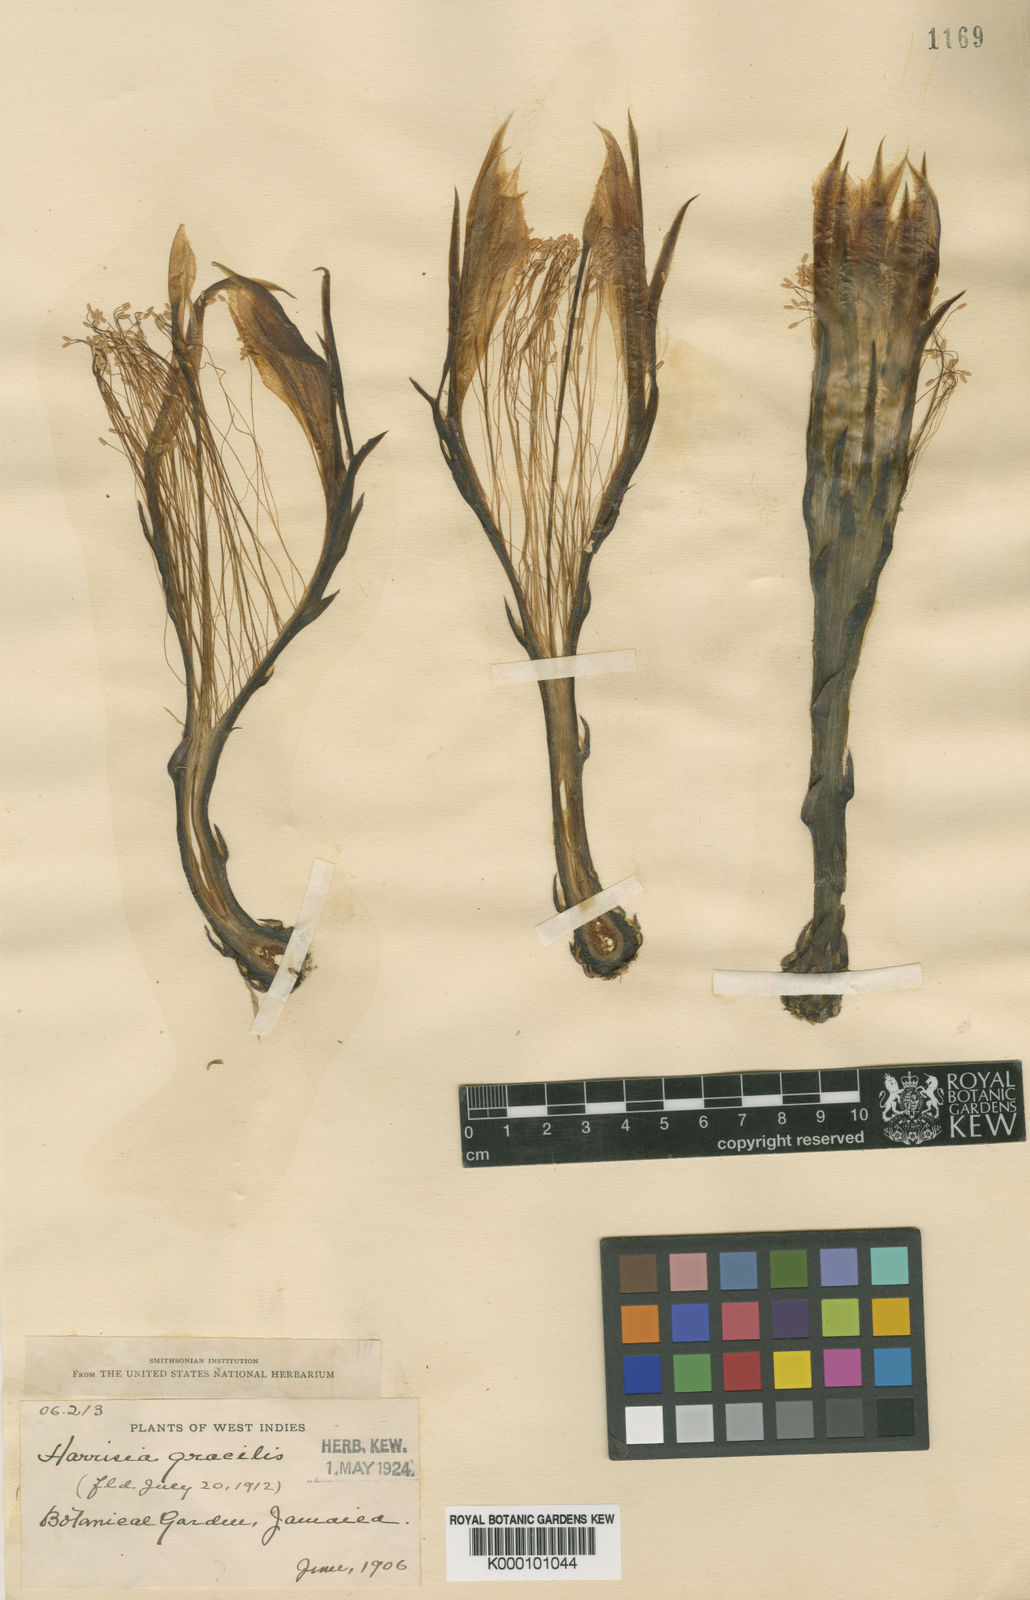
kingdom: Plantae
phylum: Tracheophyta
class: Magnoliopsida
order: Caryophyllales
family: Cactaceae
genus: Harrisia
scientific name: Harrisia gracilis
